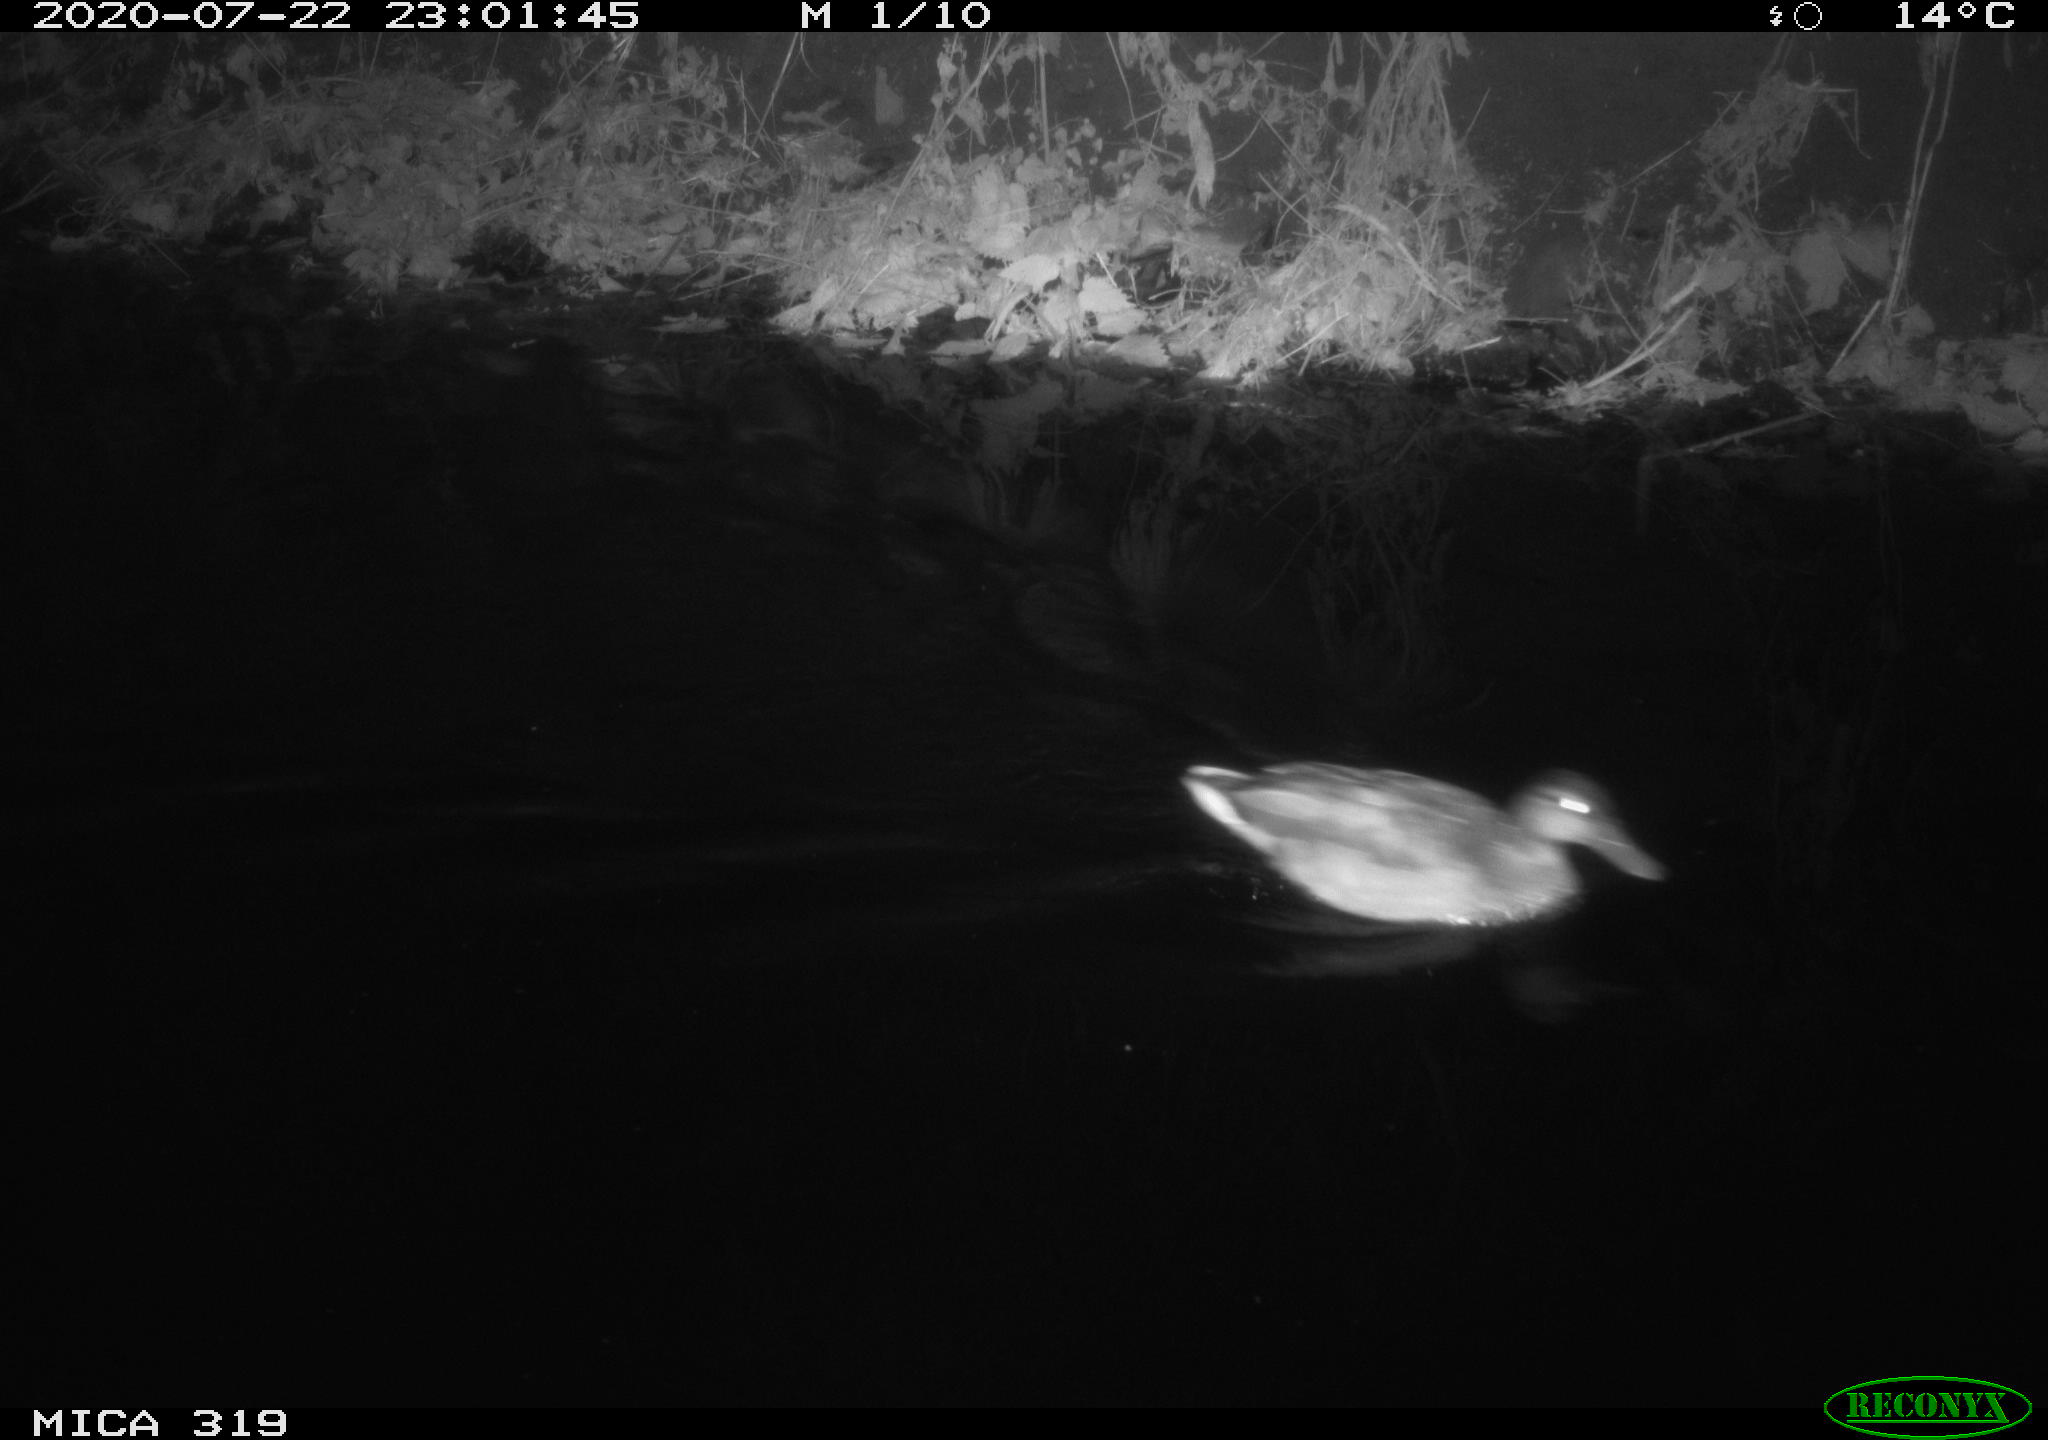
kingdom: Animalia
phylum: Chordata
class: Aves
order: Anseriformes
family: Anatidae
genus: Anas
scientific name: Anas platyrhynchos
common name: Mallard
